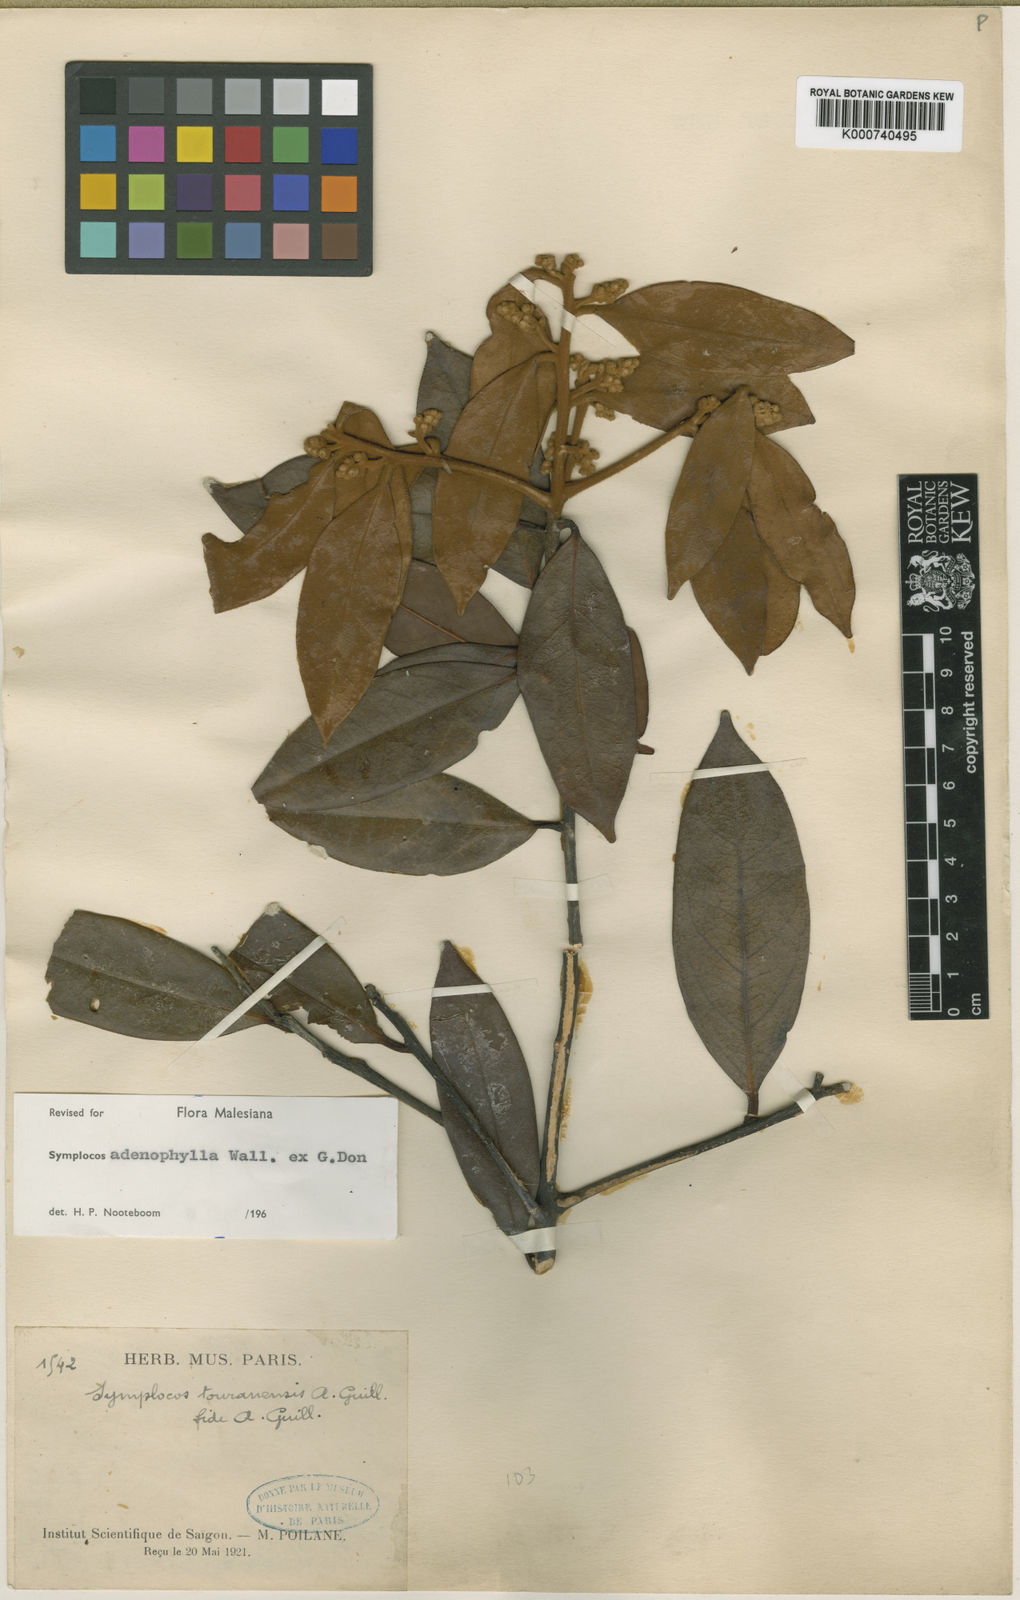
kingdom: Plantae
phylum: Tracheophyta
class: Magnoliopsida
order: Ericales
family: Symplocaceae
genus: Symplocos
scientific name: Symplocos adenophylla
